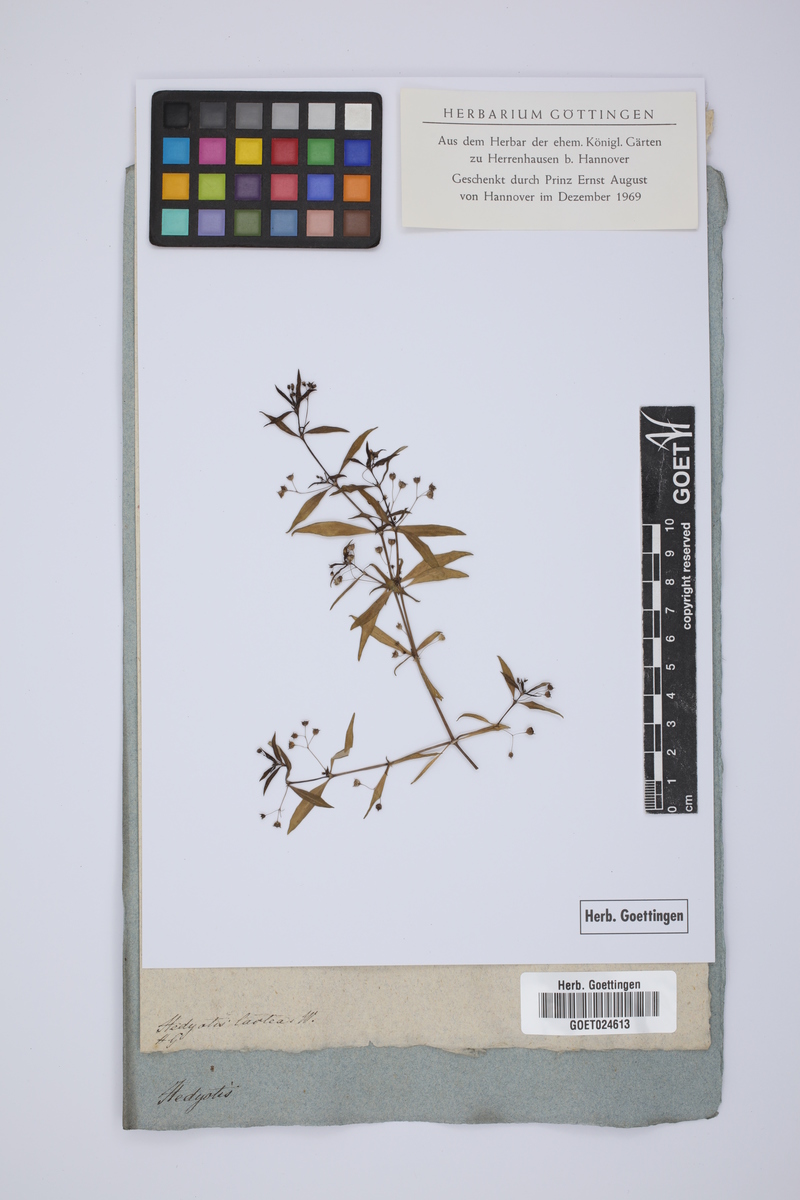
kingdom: Plantae
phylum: Tracheophyta
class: Magnoliopsida
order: Gentianales
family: Rubiaceae
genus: Oldenlandia
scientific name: Oldenlandia lactea
